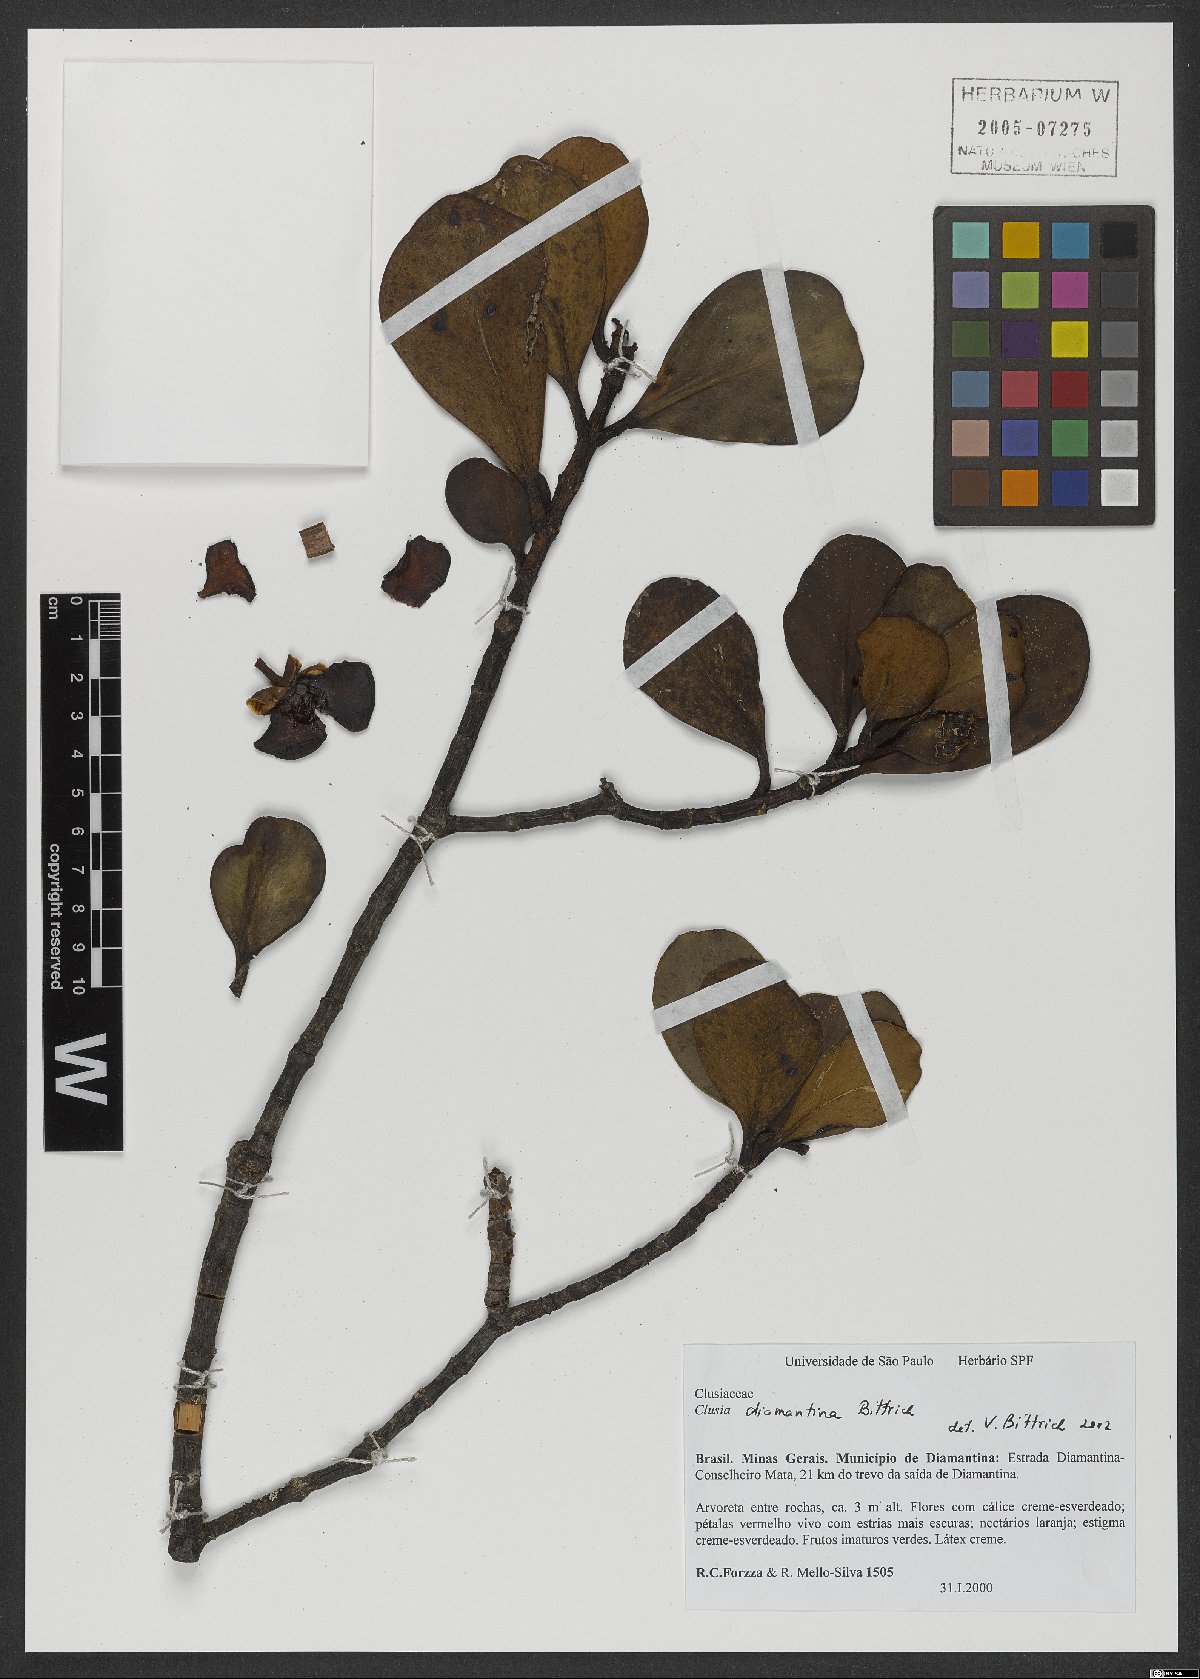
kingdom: Plantae
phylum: Tracheophyta
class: Magnoliopsida
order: Malpighiales
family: Clusiaceae
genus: Clusia
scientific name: Clusia diamantina
